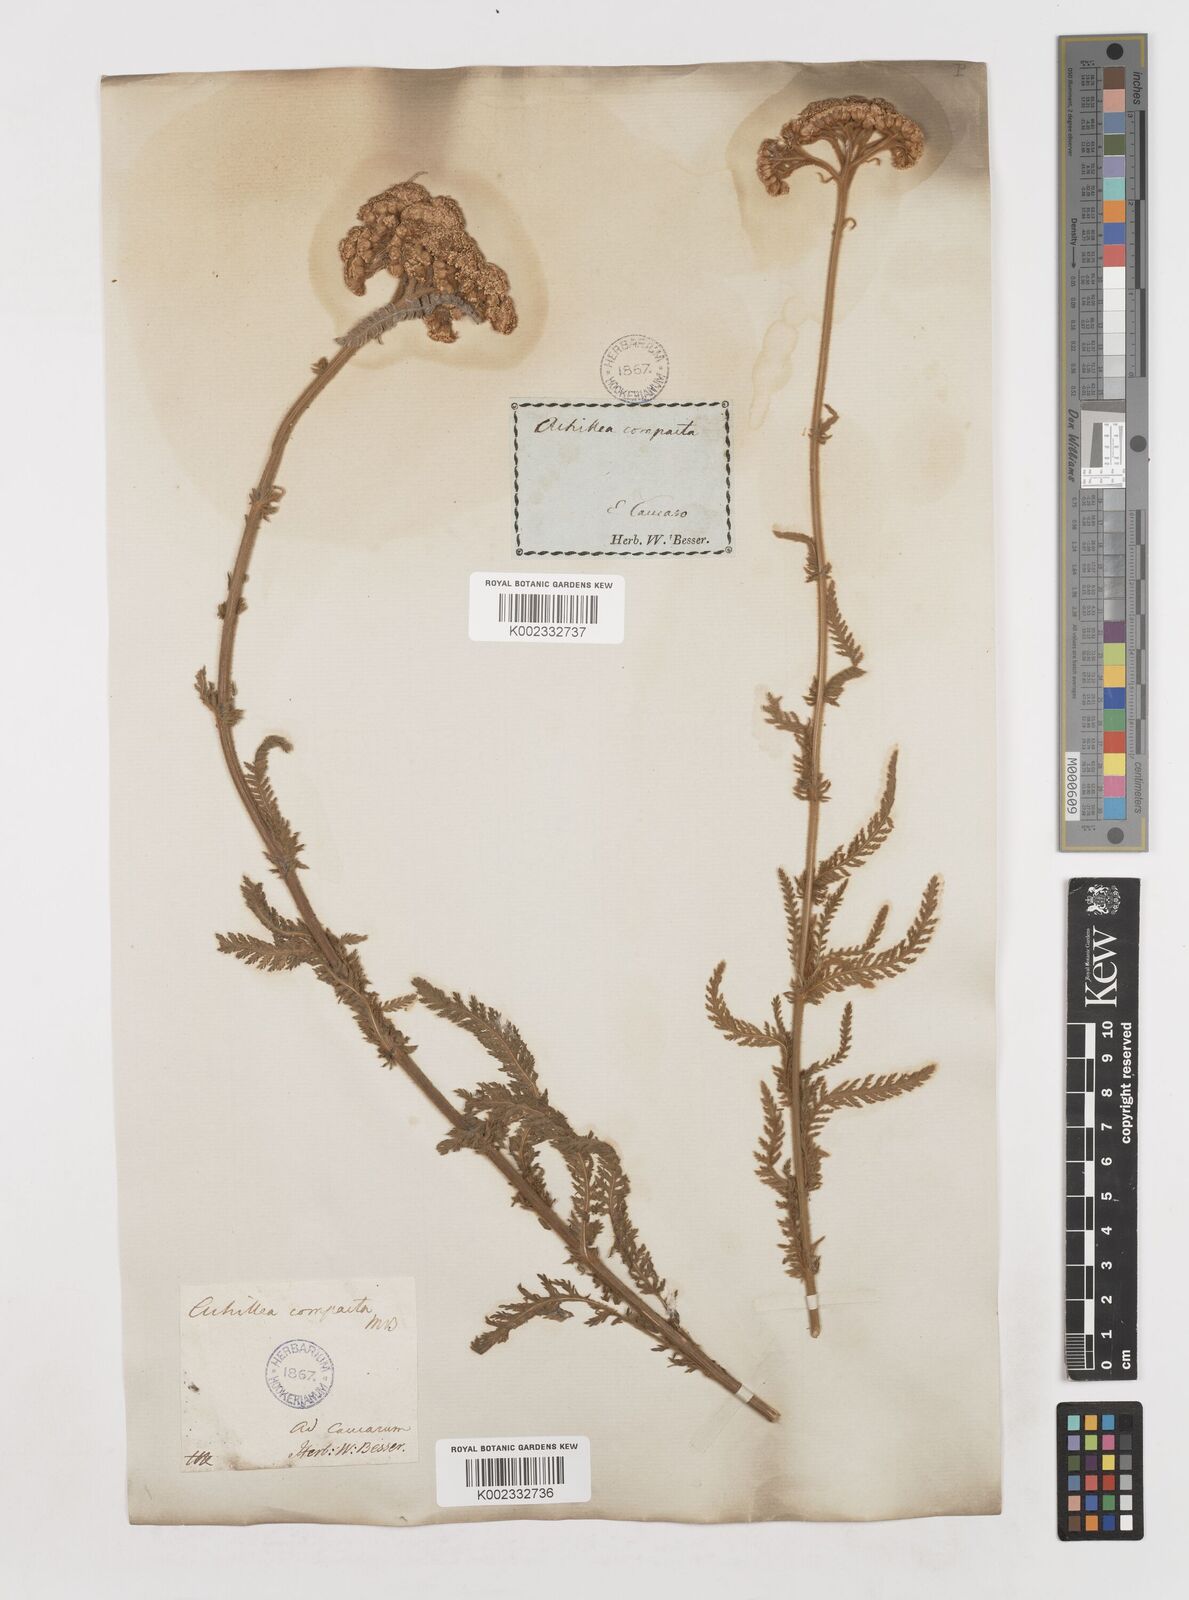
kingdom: Plantae
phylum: Tracheophyta
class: Magnoliopsida
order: Asterales
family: Asteraceae
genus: Achillea
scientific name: Achillea coarctata
